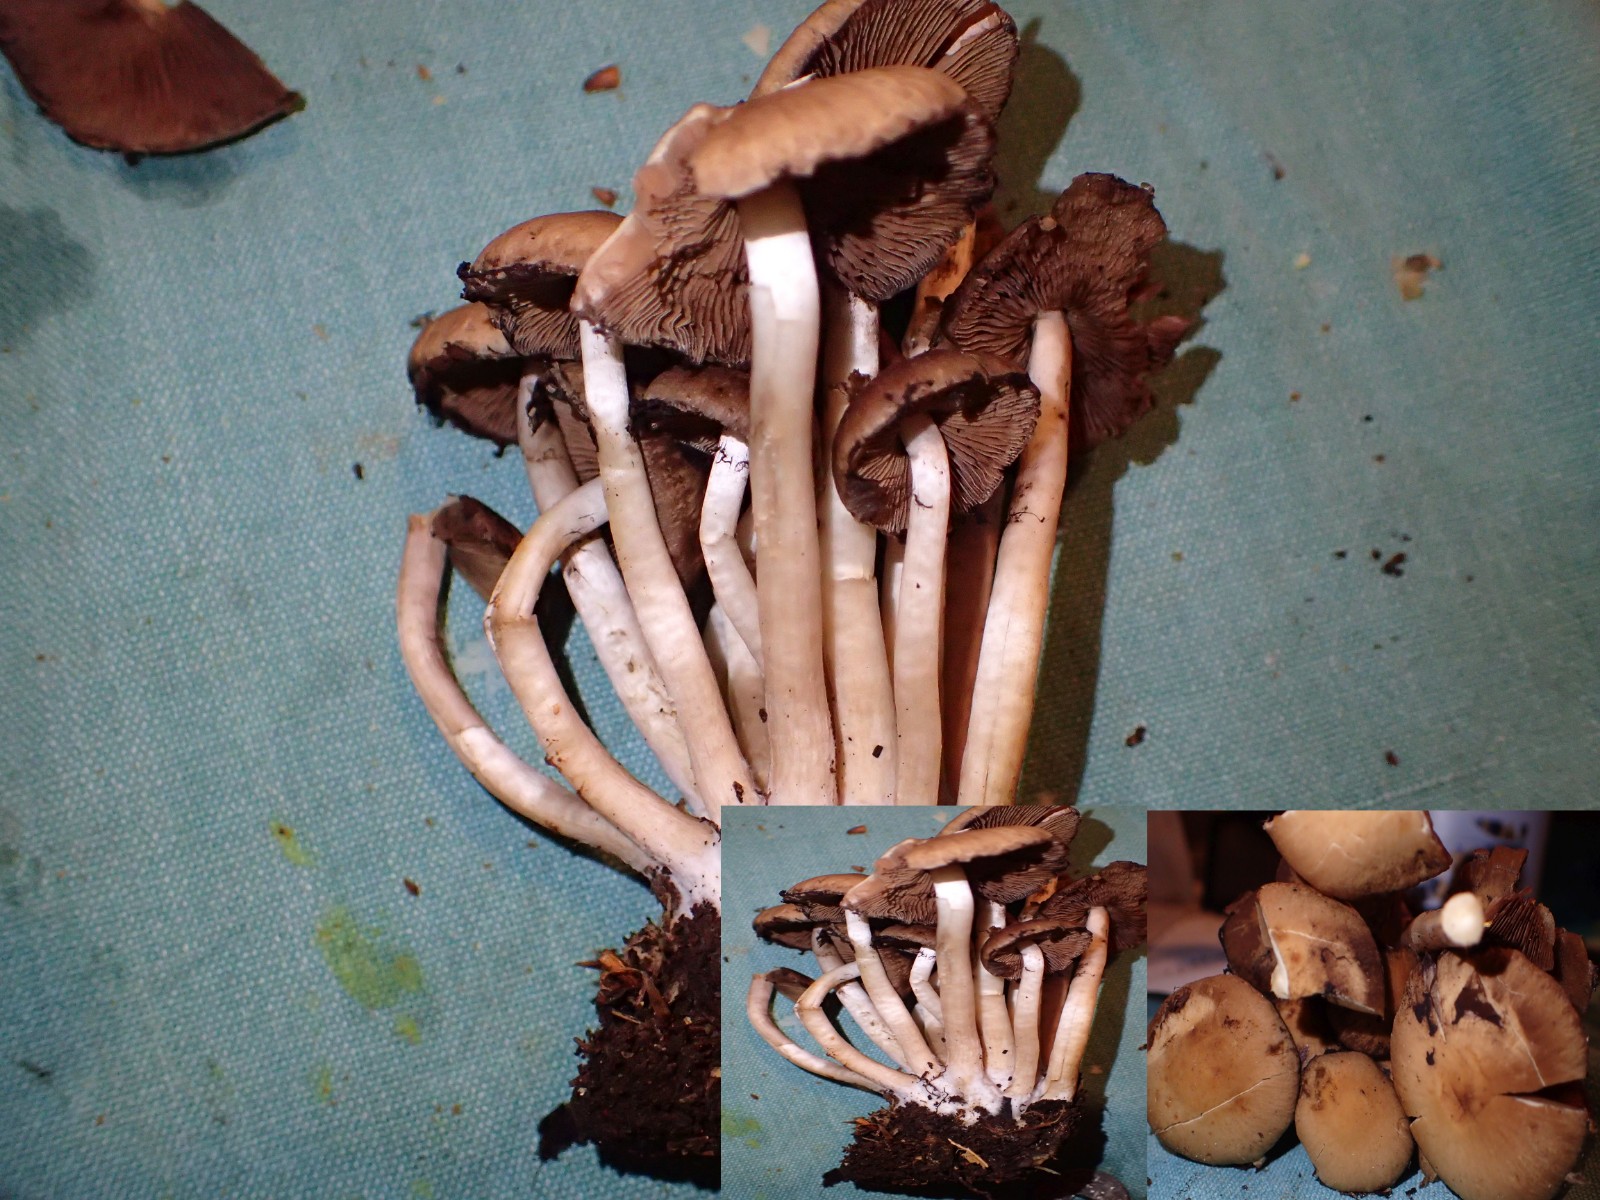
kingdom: Fungi
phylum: Basidiomycota
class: Agaricomycetes
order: Agaricales
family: Psathyrellaceae
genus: Psathyrella
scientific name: Psathyrella piluliformis
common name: lysstokket mørkhat
